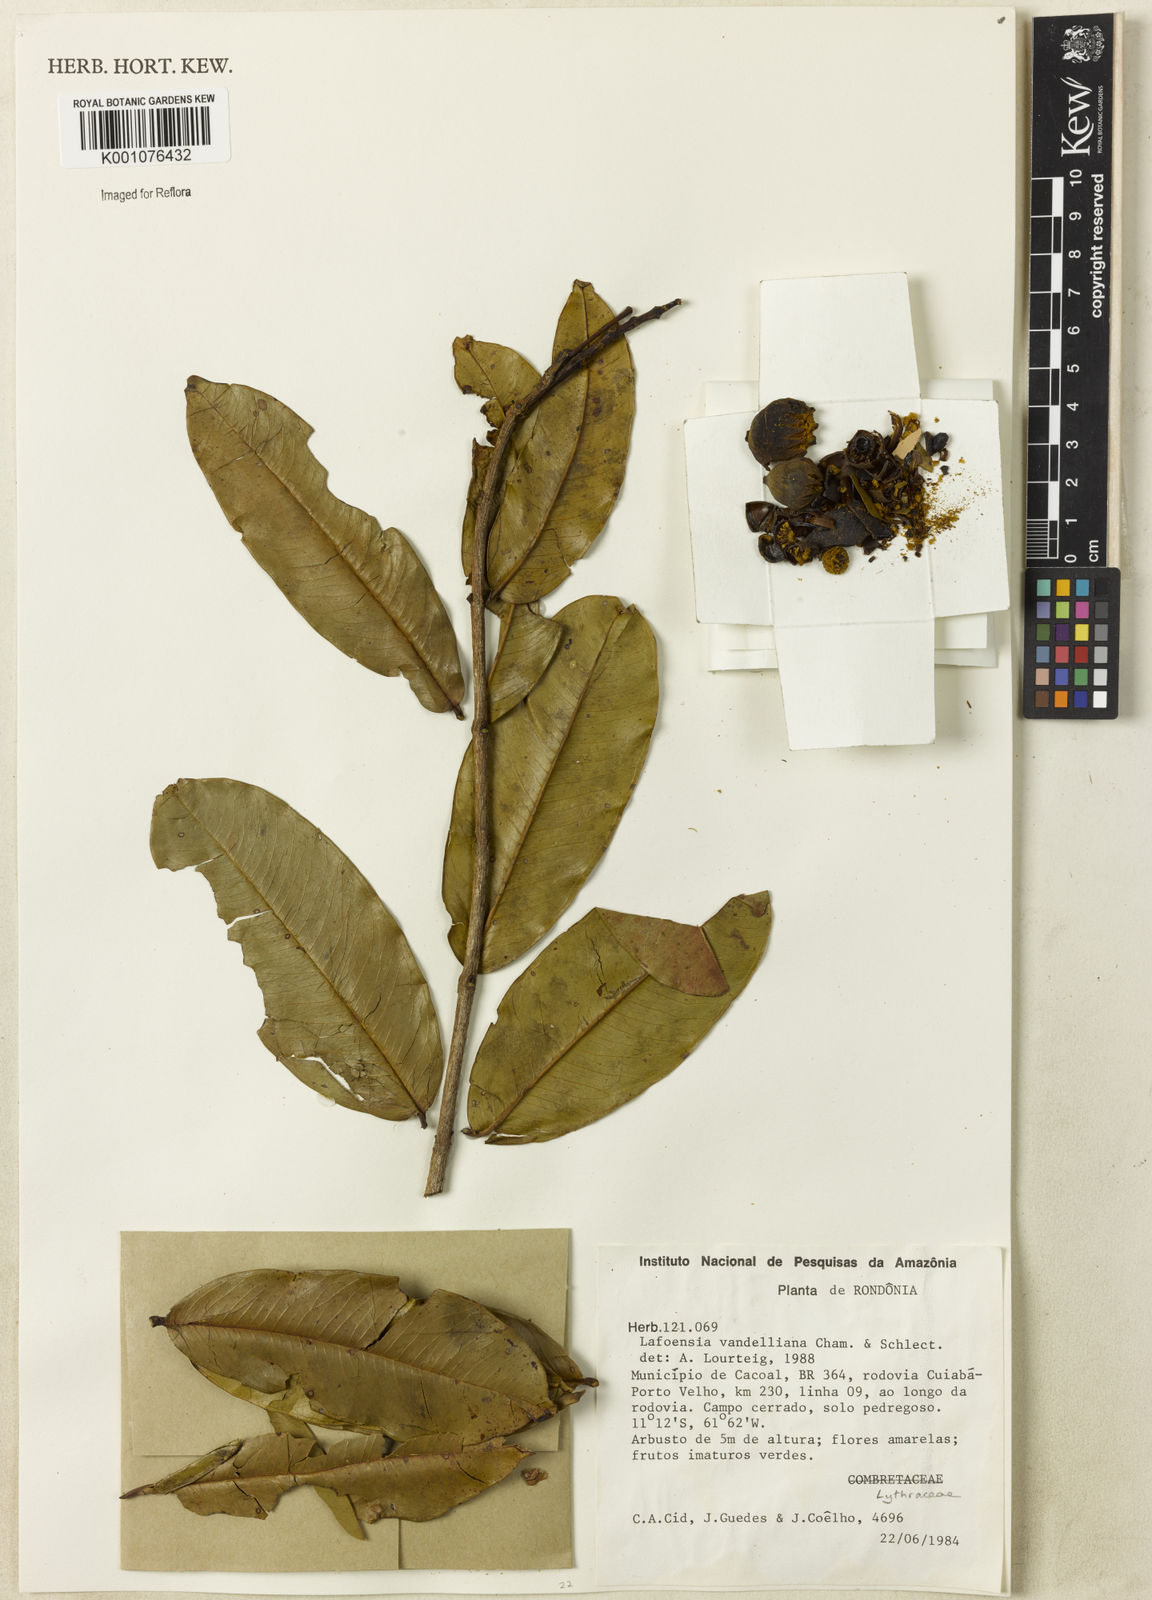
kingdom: Plantae
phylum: Tracheophyta
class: Magnoliopsida
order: Myrtales
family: Lythraceae
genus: Lafoensia
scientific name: Lafoensia vandelliana
